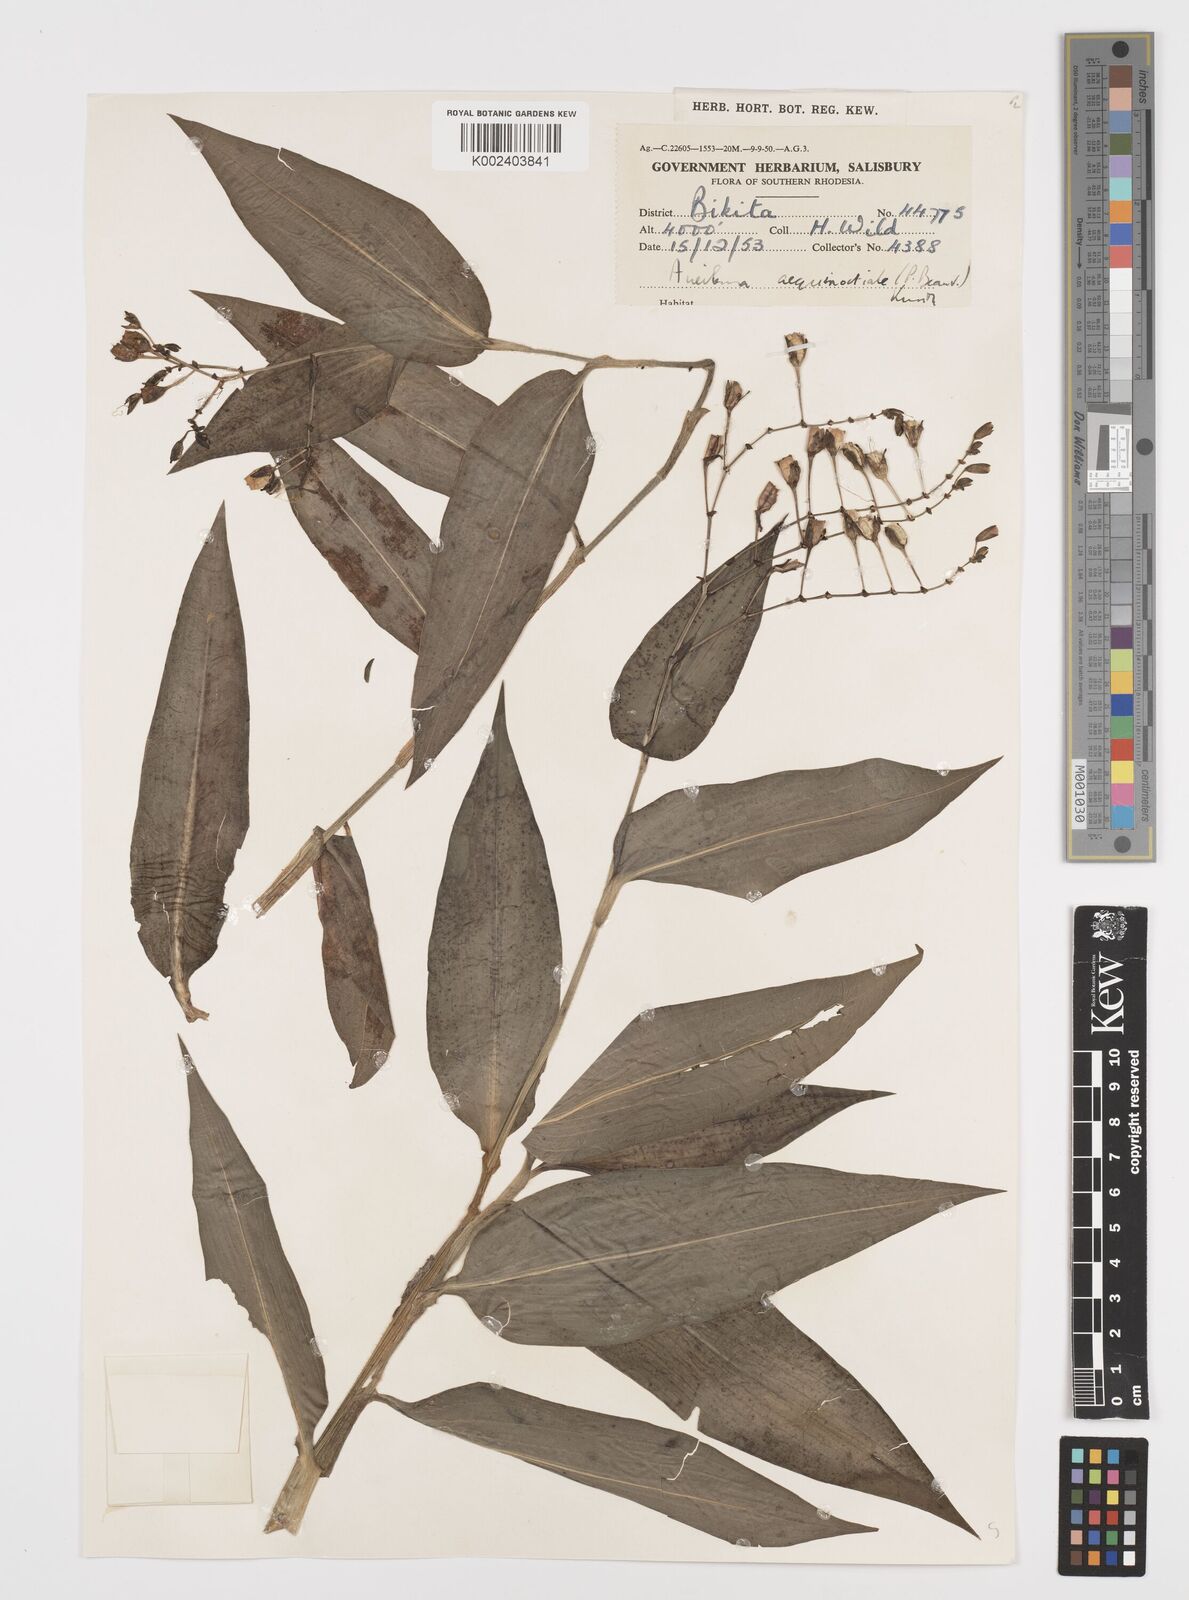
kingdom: Plantae
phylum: Tracheophyta
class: Liliopsida
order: Commelinales
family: Commelinaceae
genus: Aneilema
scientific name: Aneilema aequinoctiale
